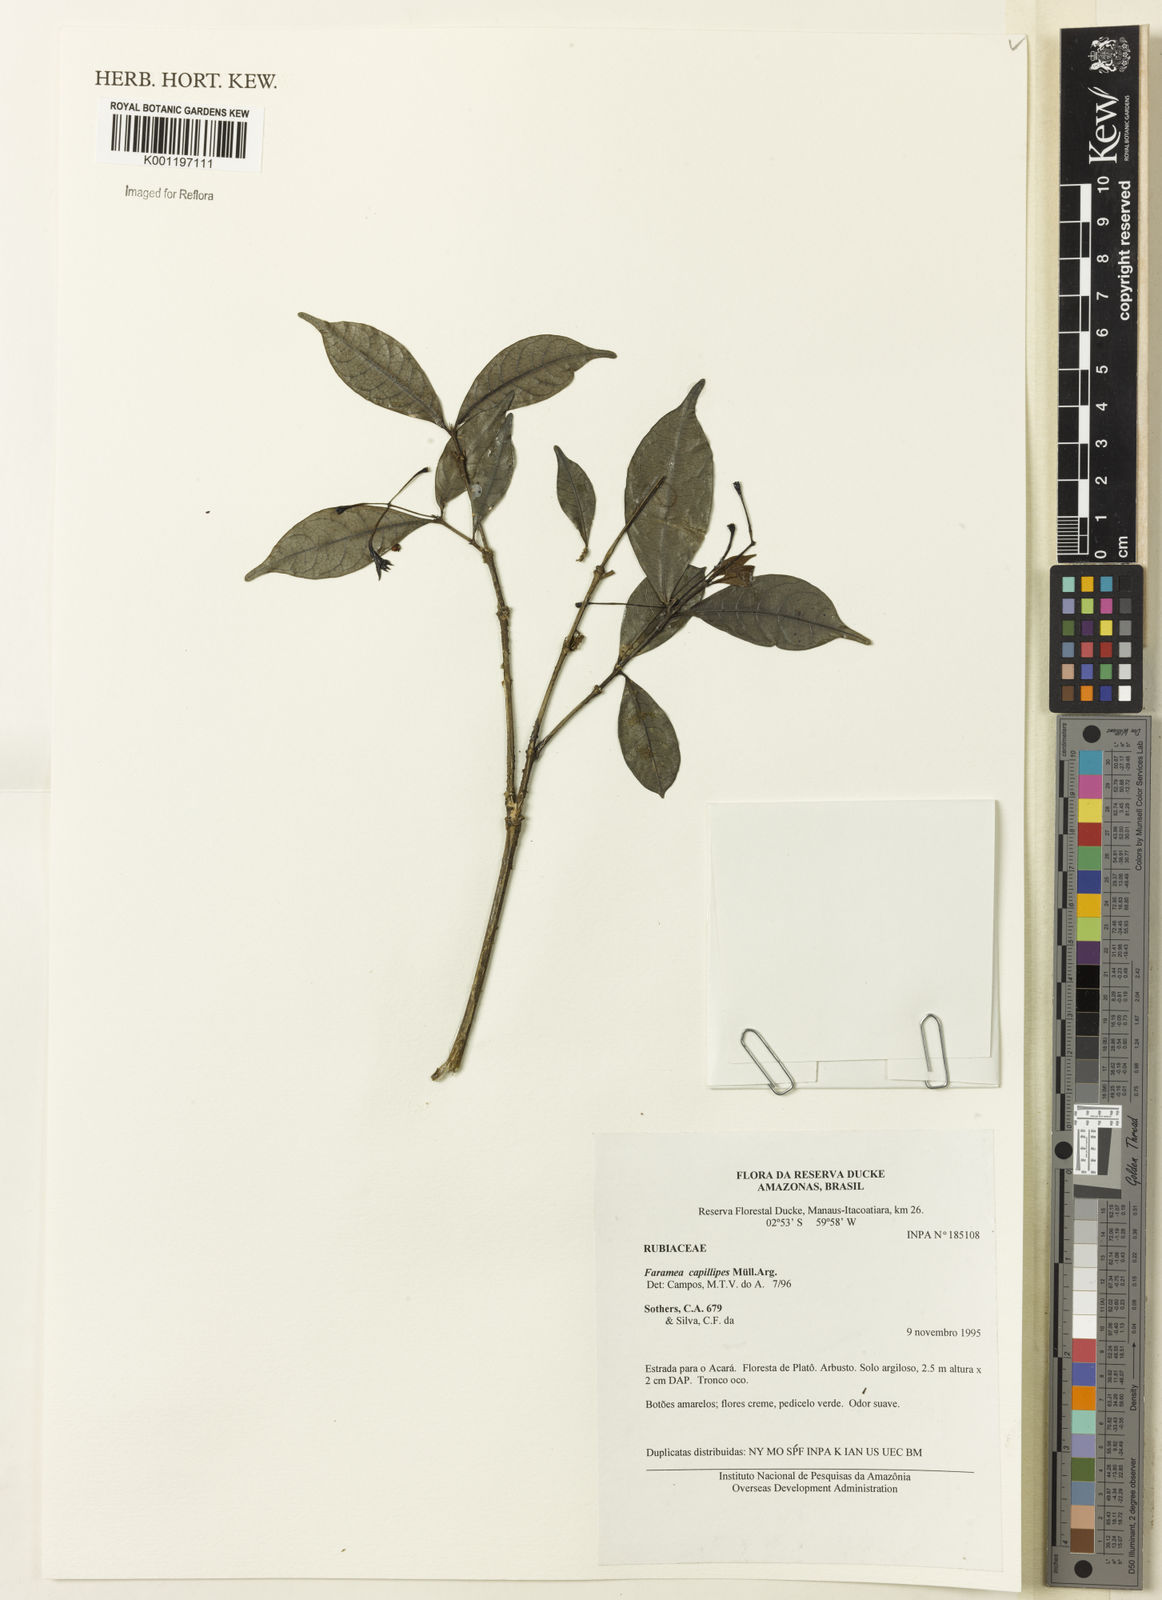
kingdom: Plantae
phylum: Tracheophyta
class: Magnoliopsida
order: Gentianales
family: Rubiaceae
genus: Faramea
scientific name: Faramea
